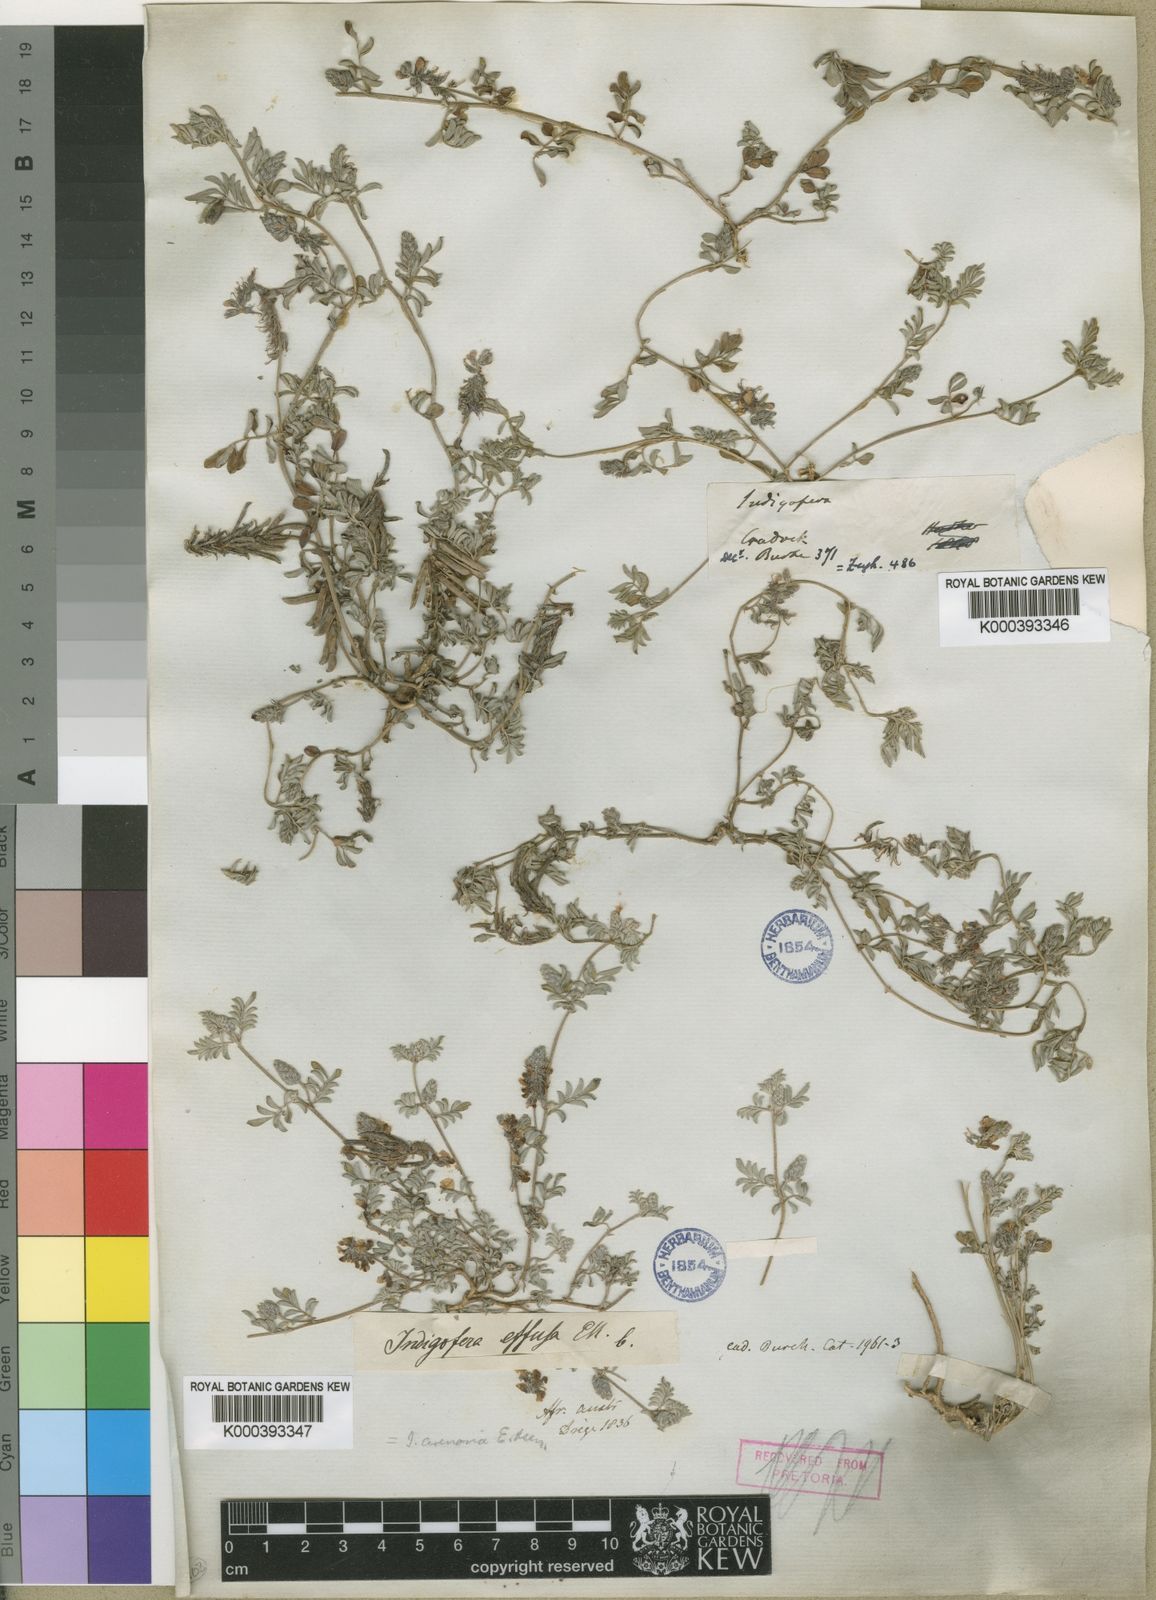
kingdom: Plantae
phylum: Tracheophyta
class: Magnoliopsida
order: Fabales
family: Fabaceae
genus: Indigofera
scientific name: Indigofera alternans
